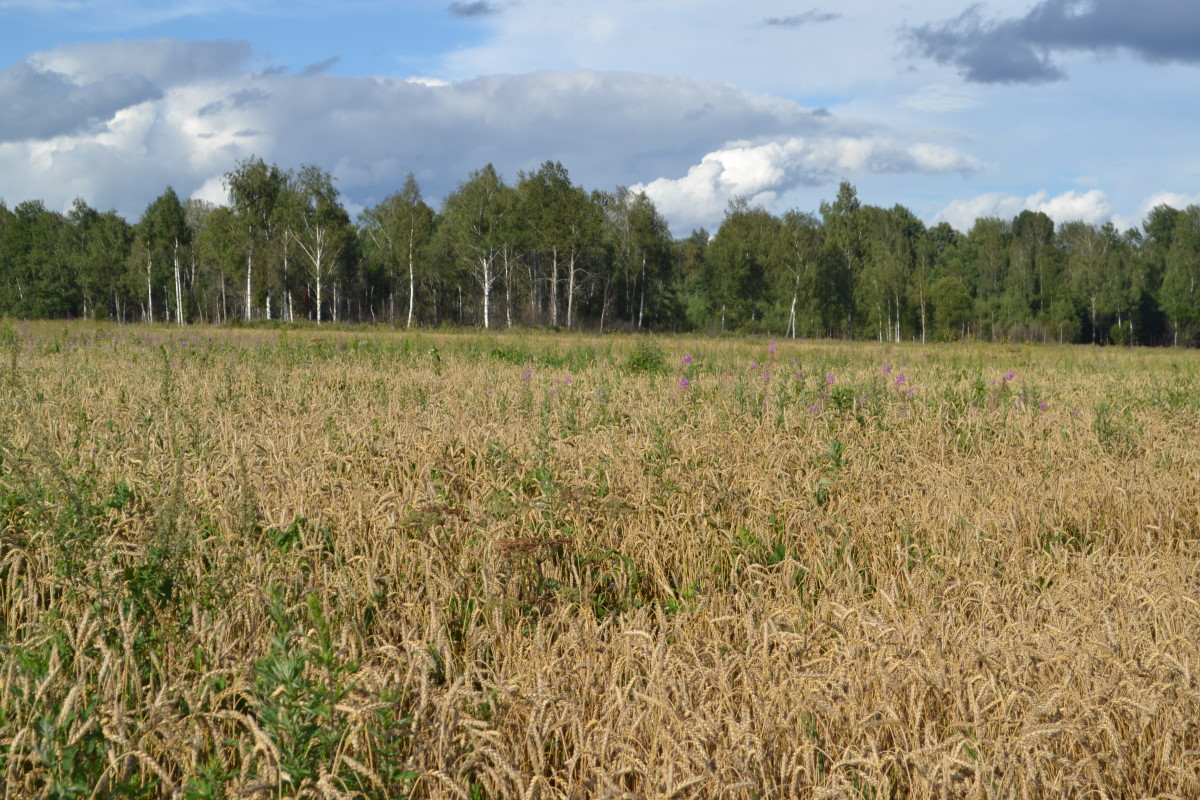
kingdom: Plantae
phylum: Tracheophyta
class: Liliopsida
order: Poales
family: Poaceae
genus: Triticum
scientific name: Triticum
